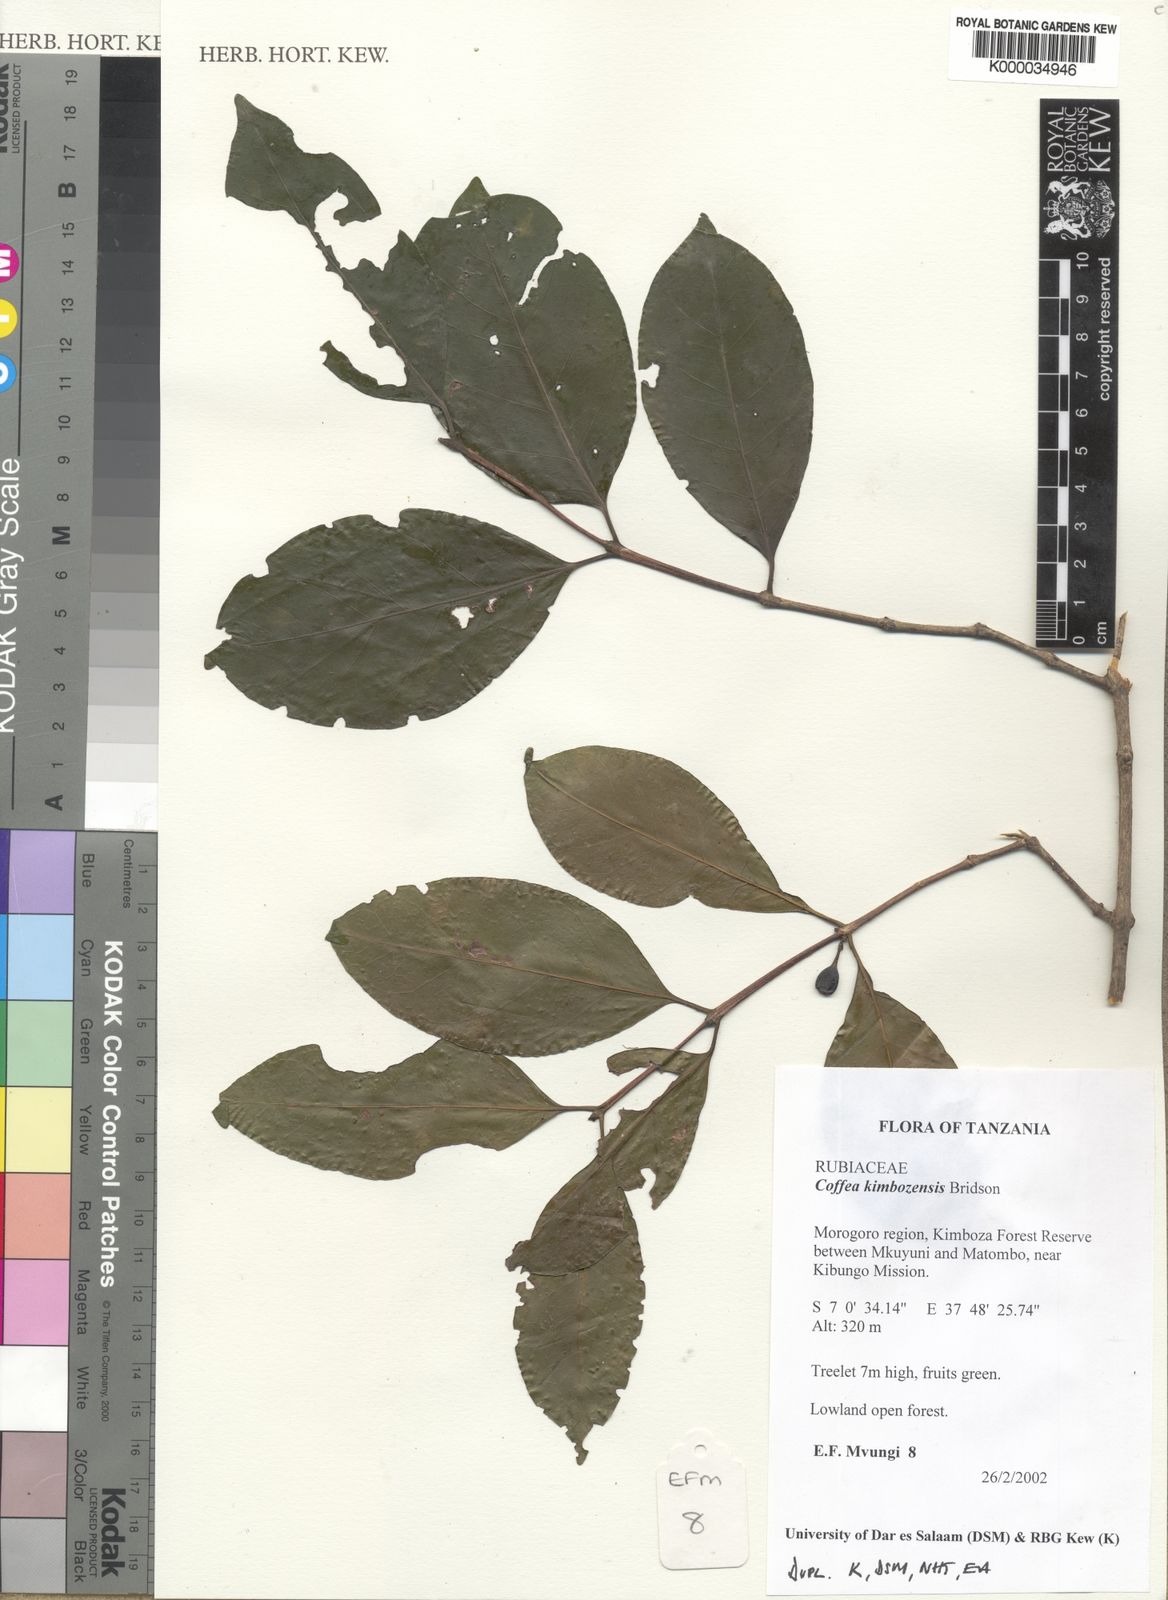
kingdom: Plantae
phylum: Tracheophyta
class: Magnoliopsida
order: Gentianales
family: Rubiaceae
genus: Coffea
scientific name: Coffea kimbozensis
